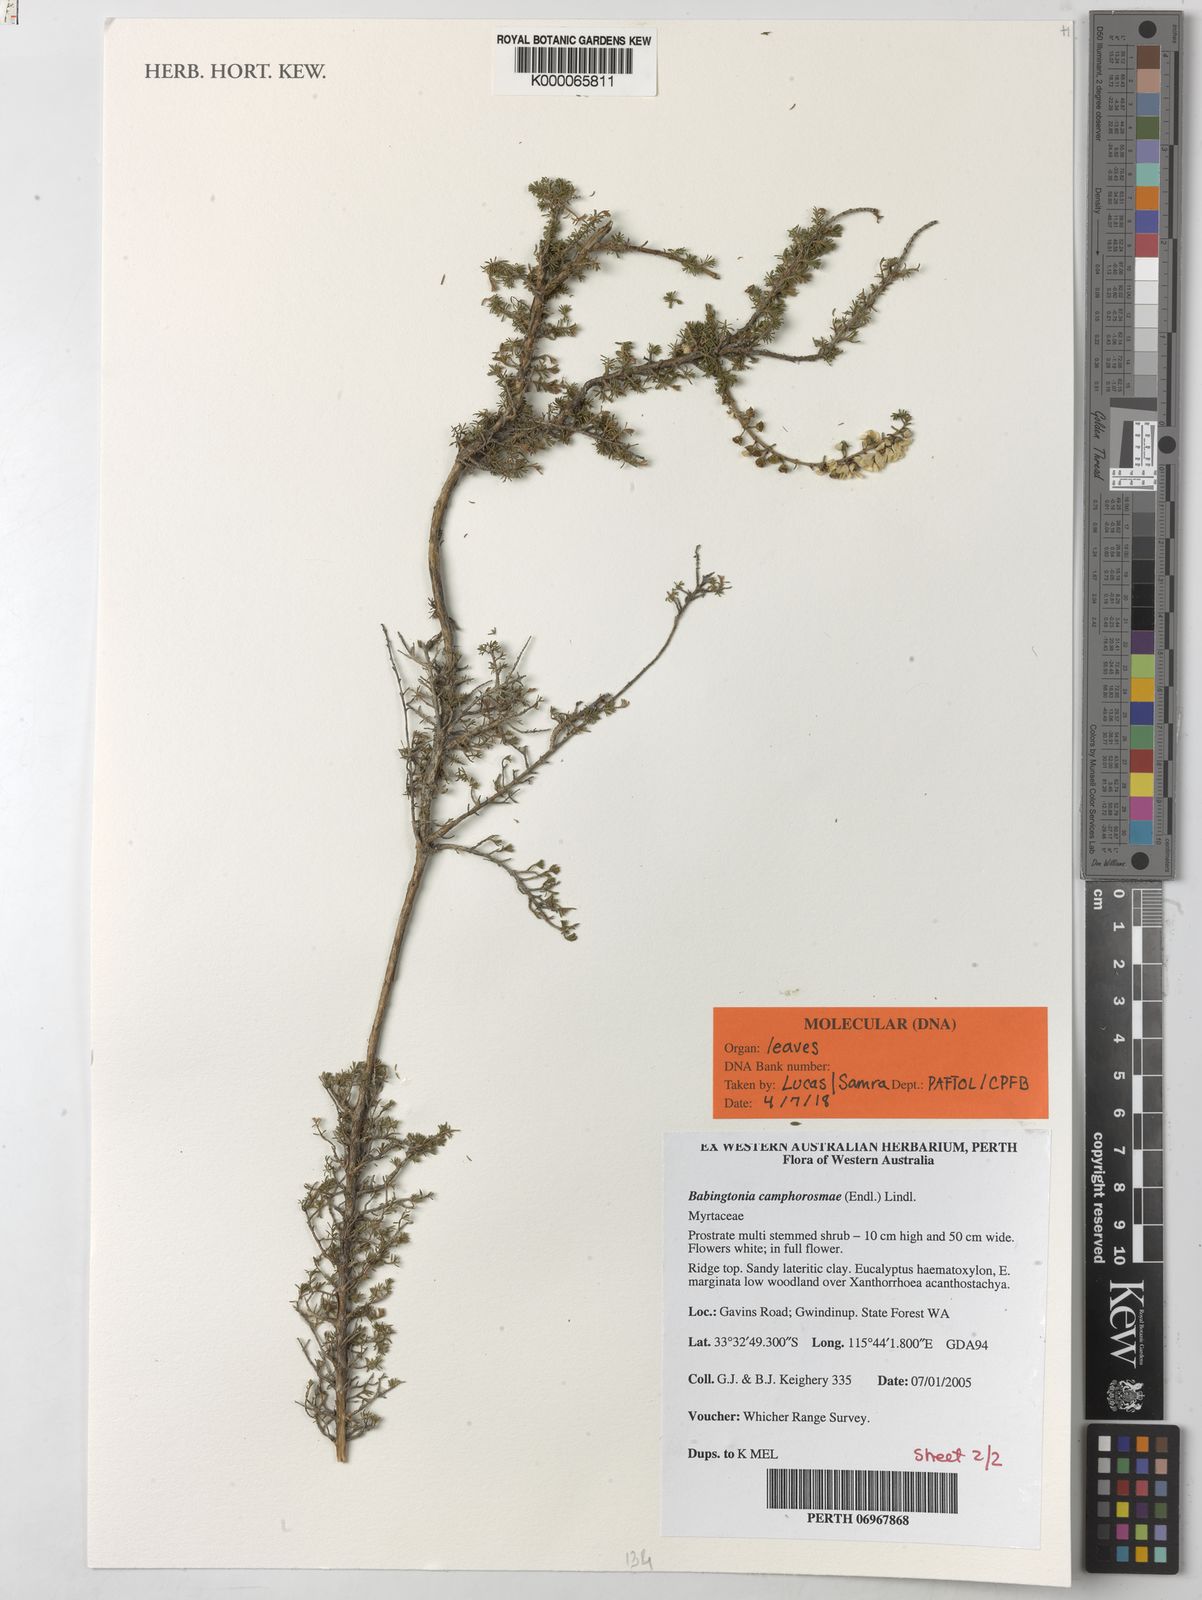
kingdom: Plantae
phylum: Tracheophyta
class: Magnoliopsida
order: Myrtales
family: Myrtaceae
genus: Babingtonia
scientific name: Babingtonia camphorosmae
